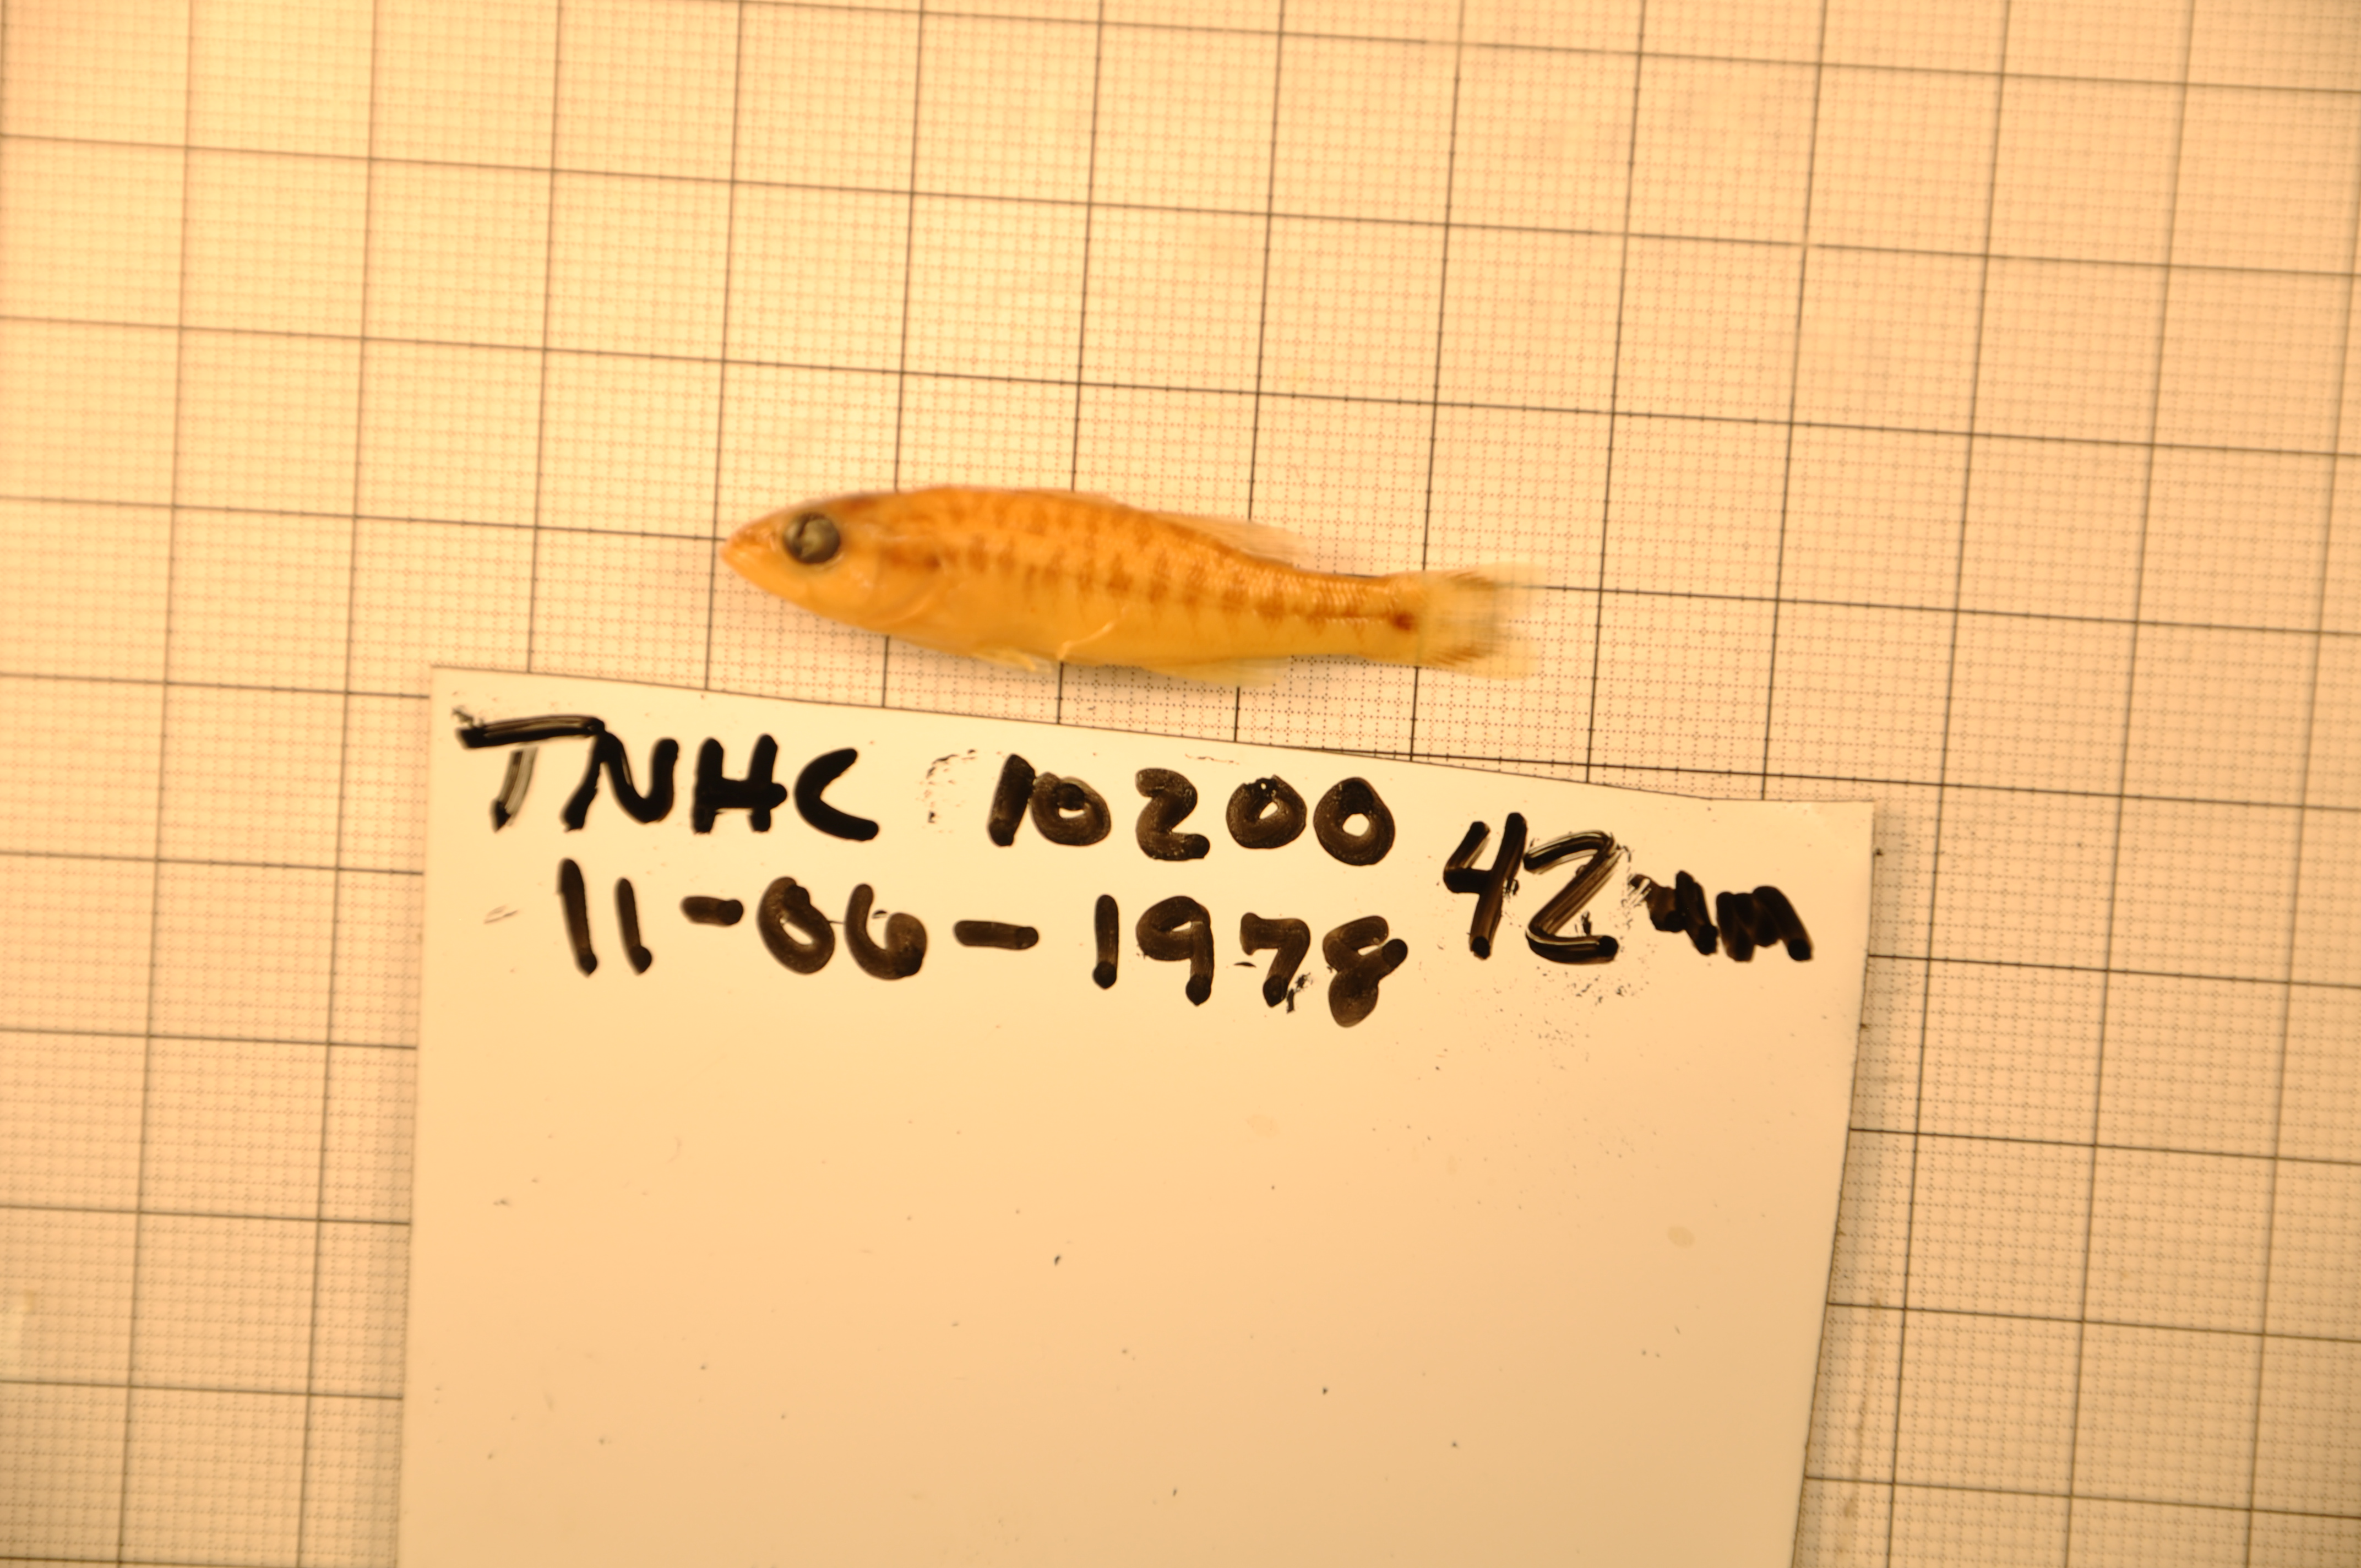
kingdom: Animalia
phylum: Chordata
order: Perciformes
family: Centrarchidae
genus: Micropterus
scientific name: Micropterus treculii
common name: Guadalupe bass
